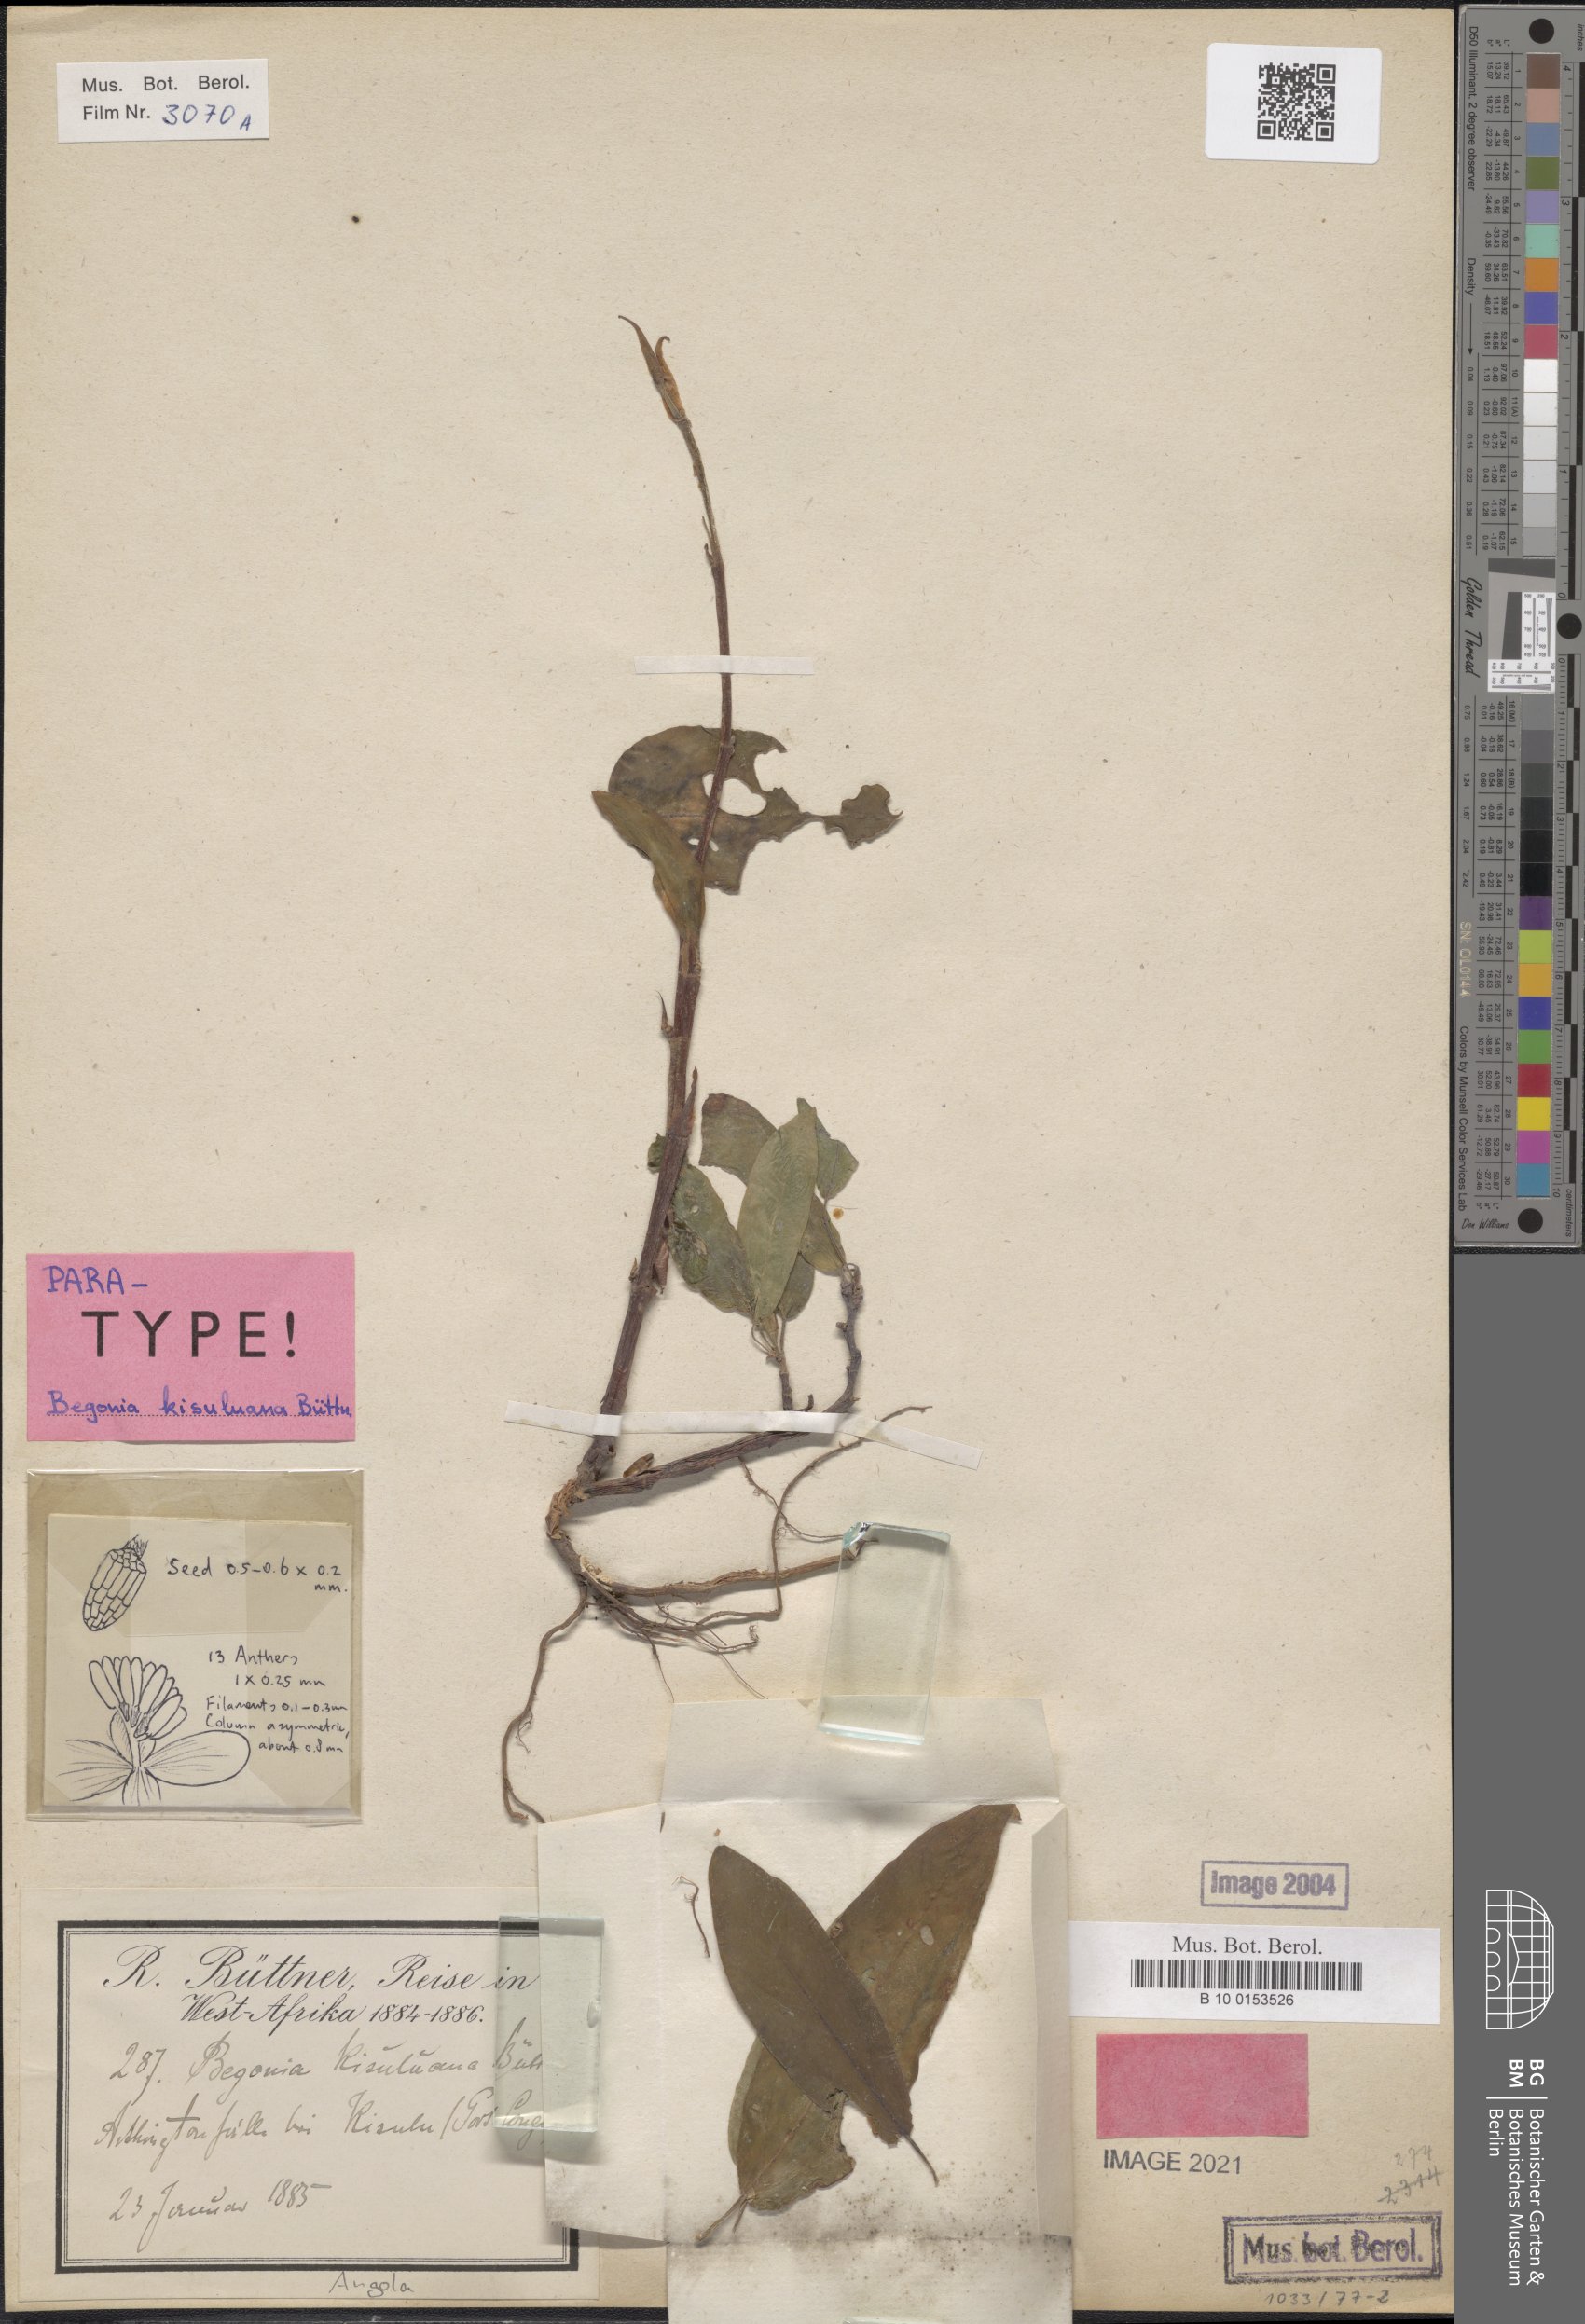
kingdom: Plantae
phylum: Tracheophyta
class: Magnoliopsida
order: Cucurbitales
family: Begoniaceae
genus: Begonia
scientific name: Begonia kisuluana
